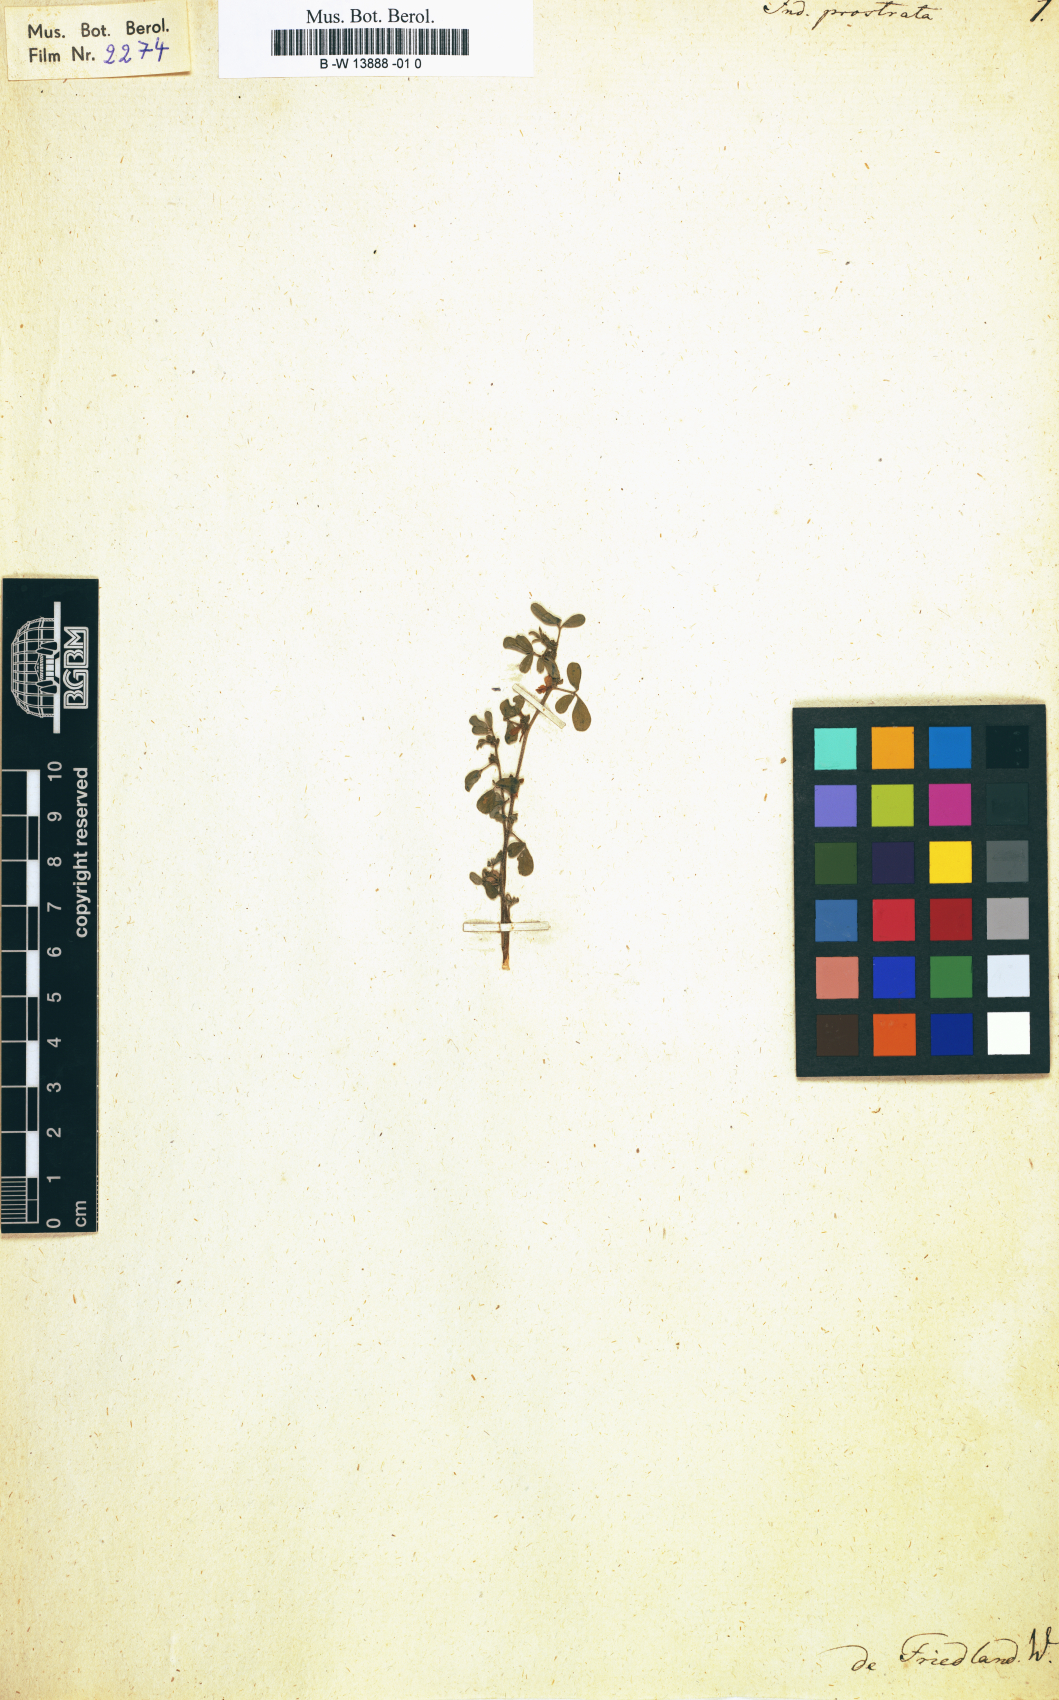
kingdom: Plantae
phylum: Tracheophyta
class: Magnoliopsida
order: Fabales
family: Fabaceae
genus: Indigofera
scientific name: Indigofera hendecaphylla
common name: Trailing indigo
